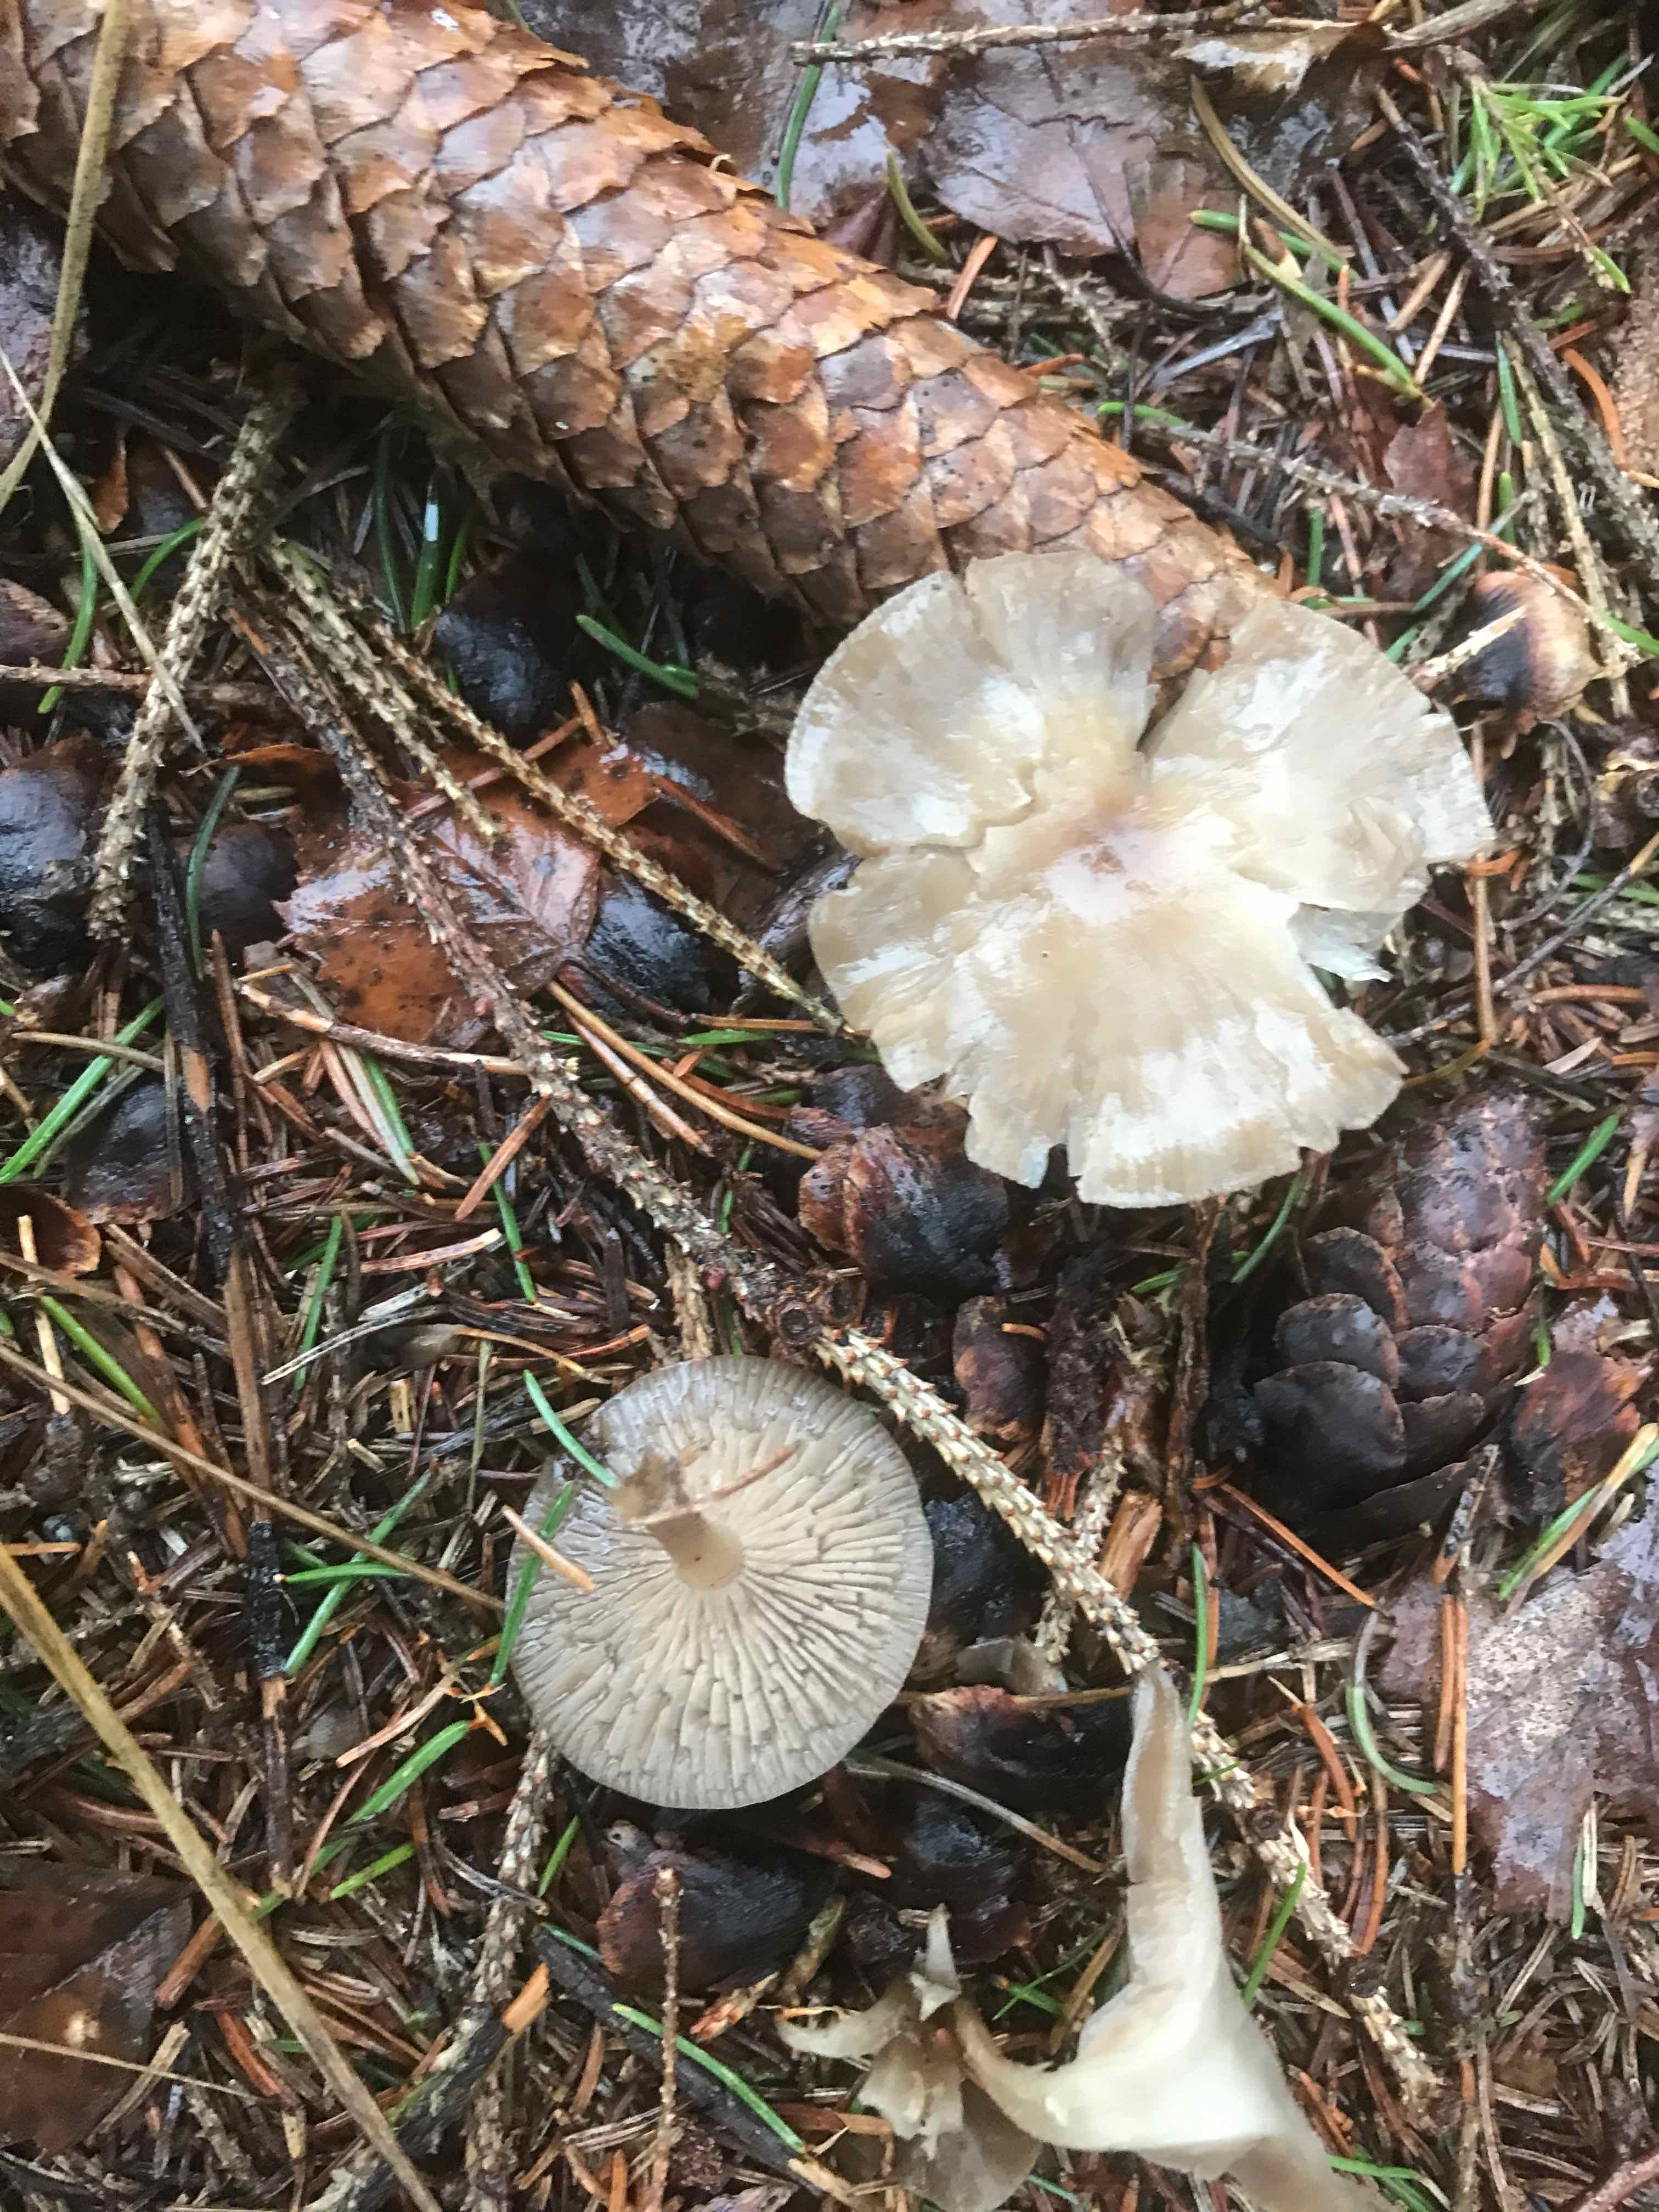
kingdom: Fungi
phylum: Basidiomycota
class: Agaricomycetes
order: Agaricales
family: Tricholomataceae
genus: Clitocybe
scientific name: Clitocybe metachroa
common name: grå tragthat
